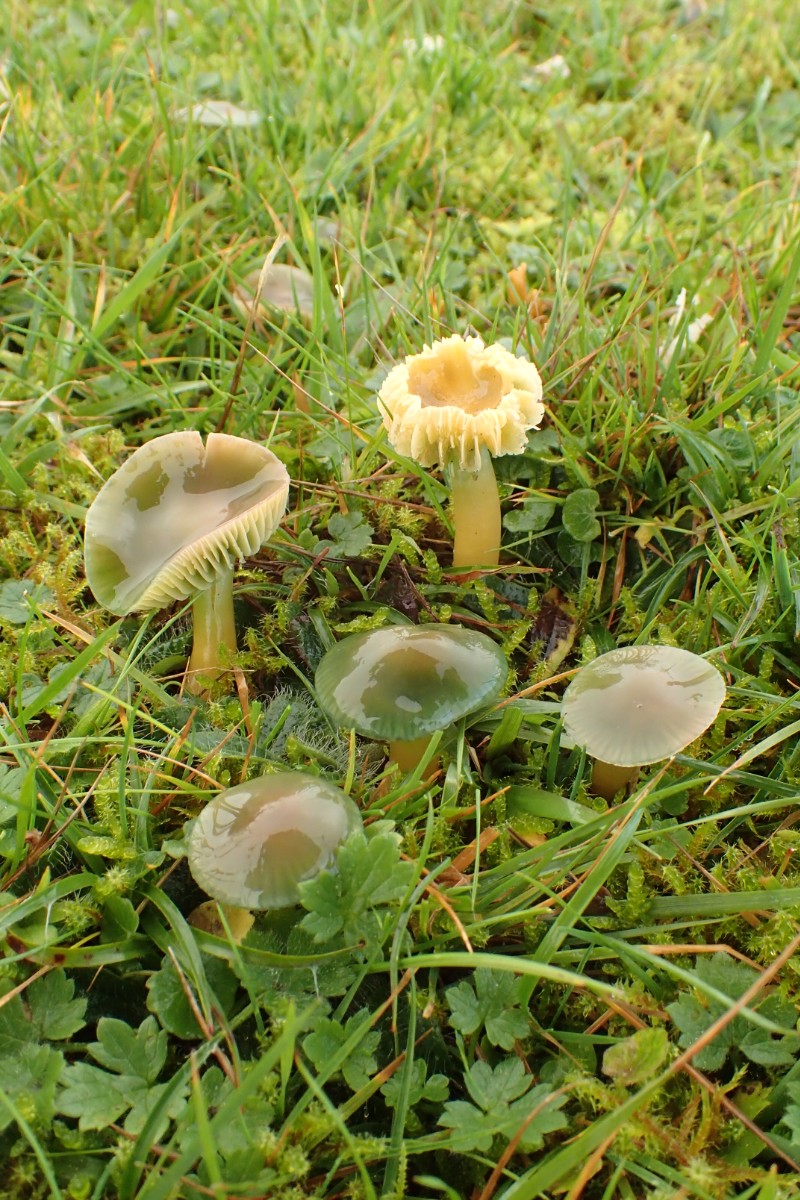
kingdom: Fungi
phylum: Basidiomycota
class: Agaricomycetes
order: Agaricales
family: Hygrophoraceae
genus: Gliophorus
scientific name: Gliophorus psittacinus
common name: papegøje-vokshat
